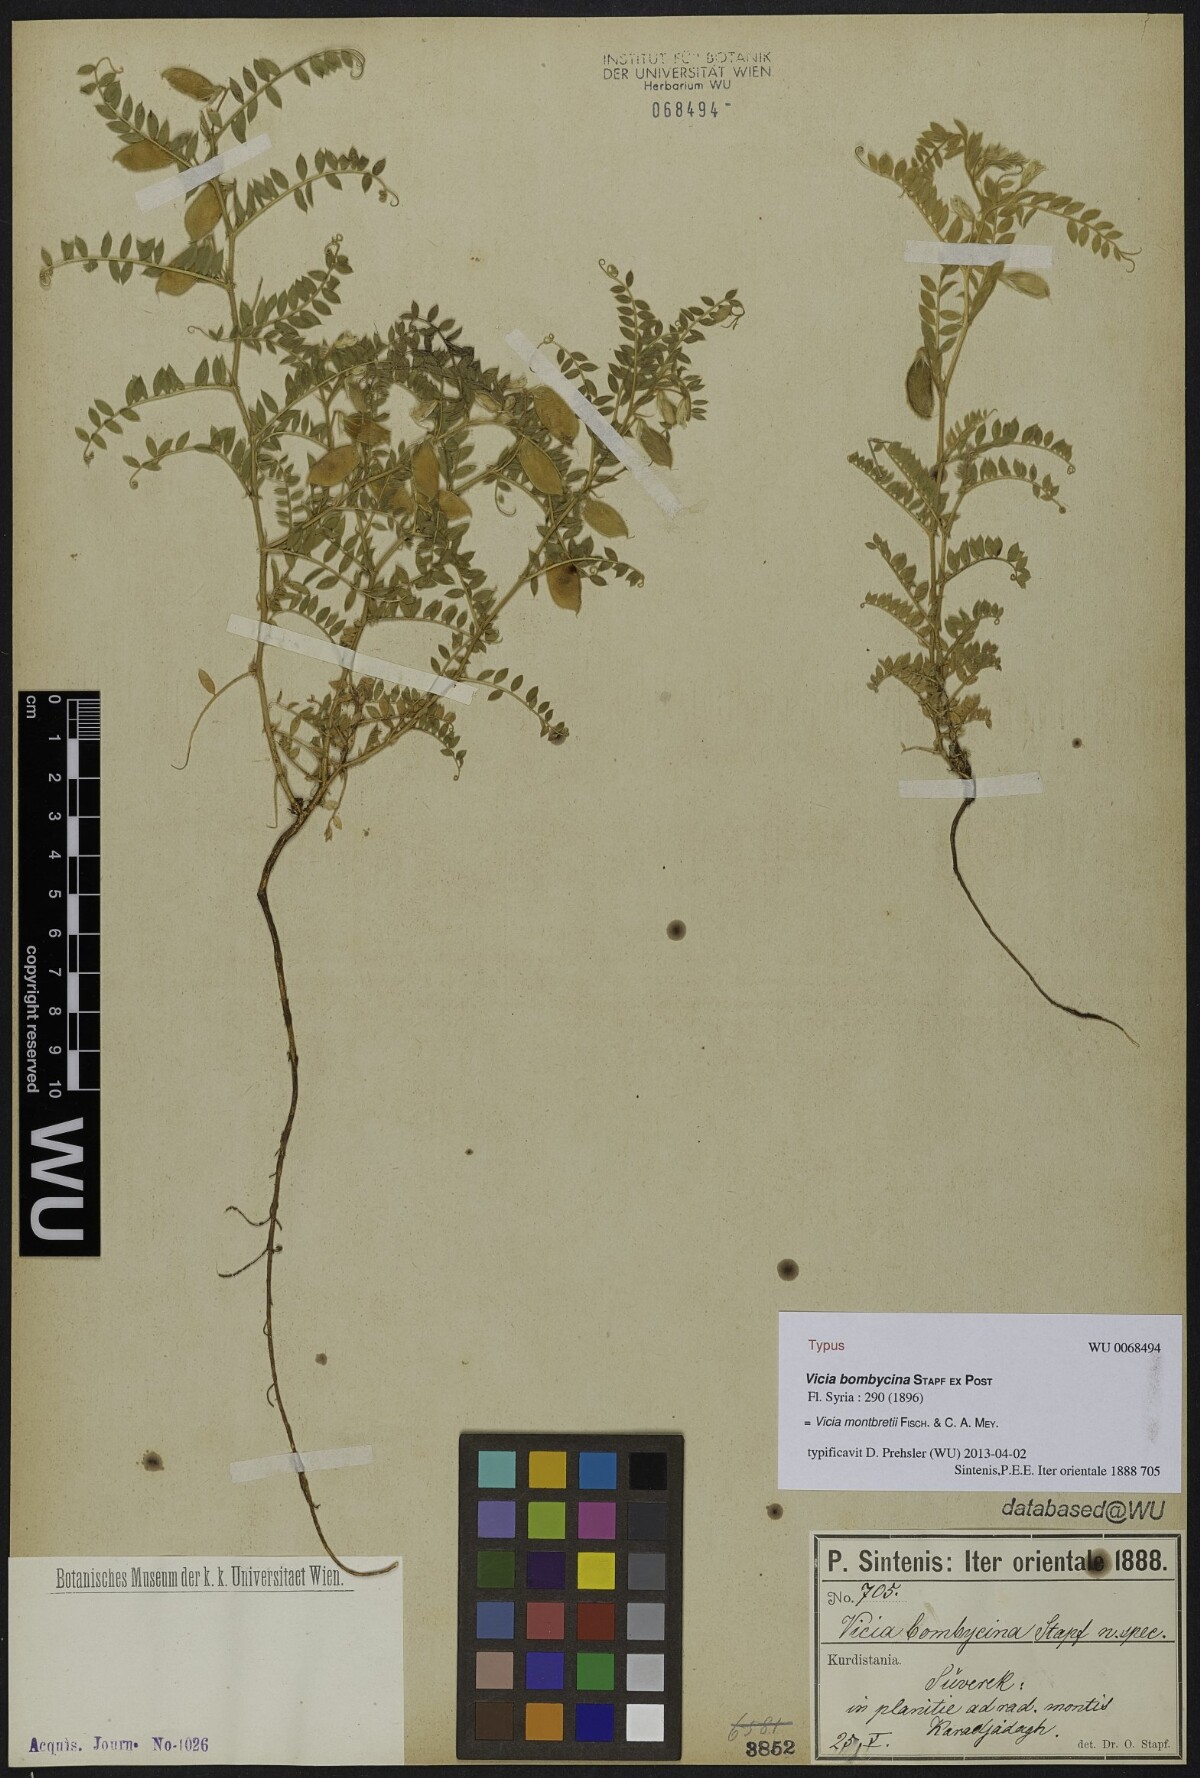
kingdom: Plantae
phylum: Tracheophyta
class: Magnoliopsida
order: Fabales
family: Fabaceae
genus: Vicia
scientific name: Vicia montbretii
